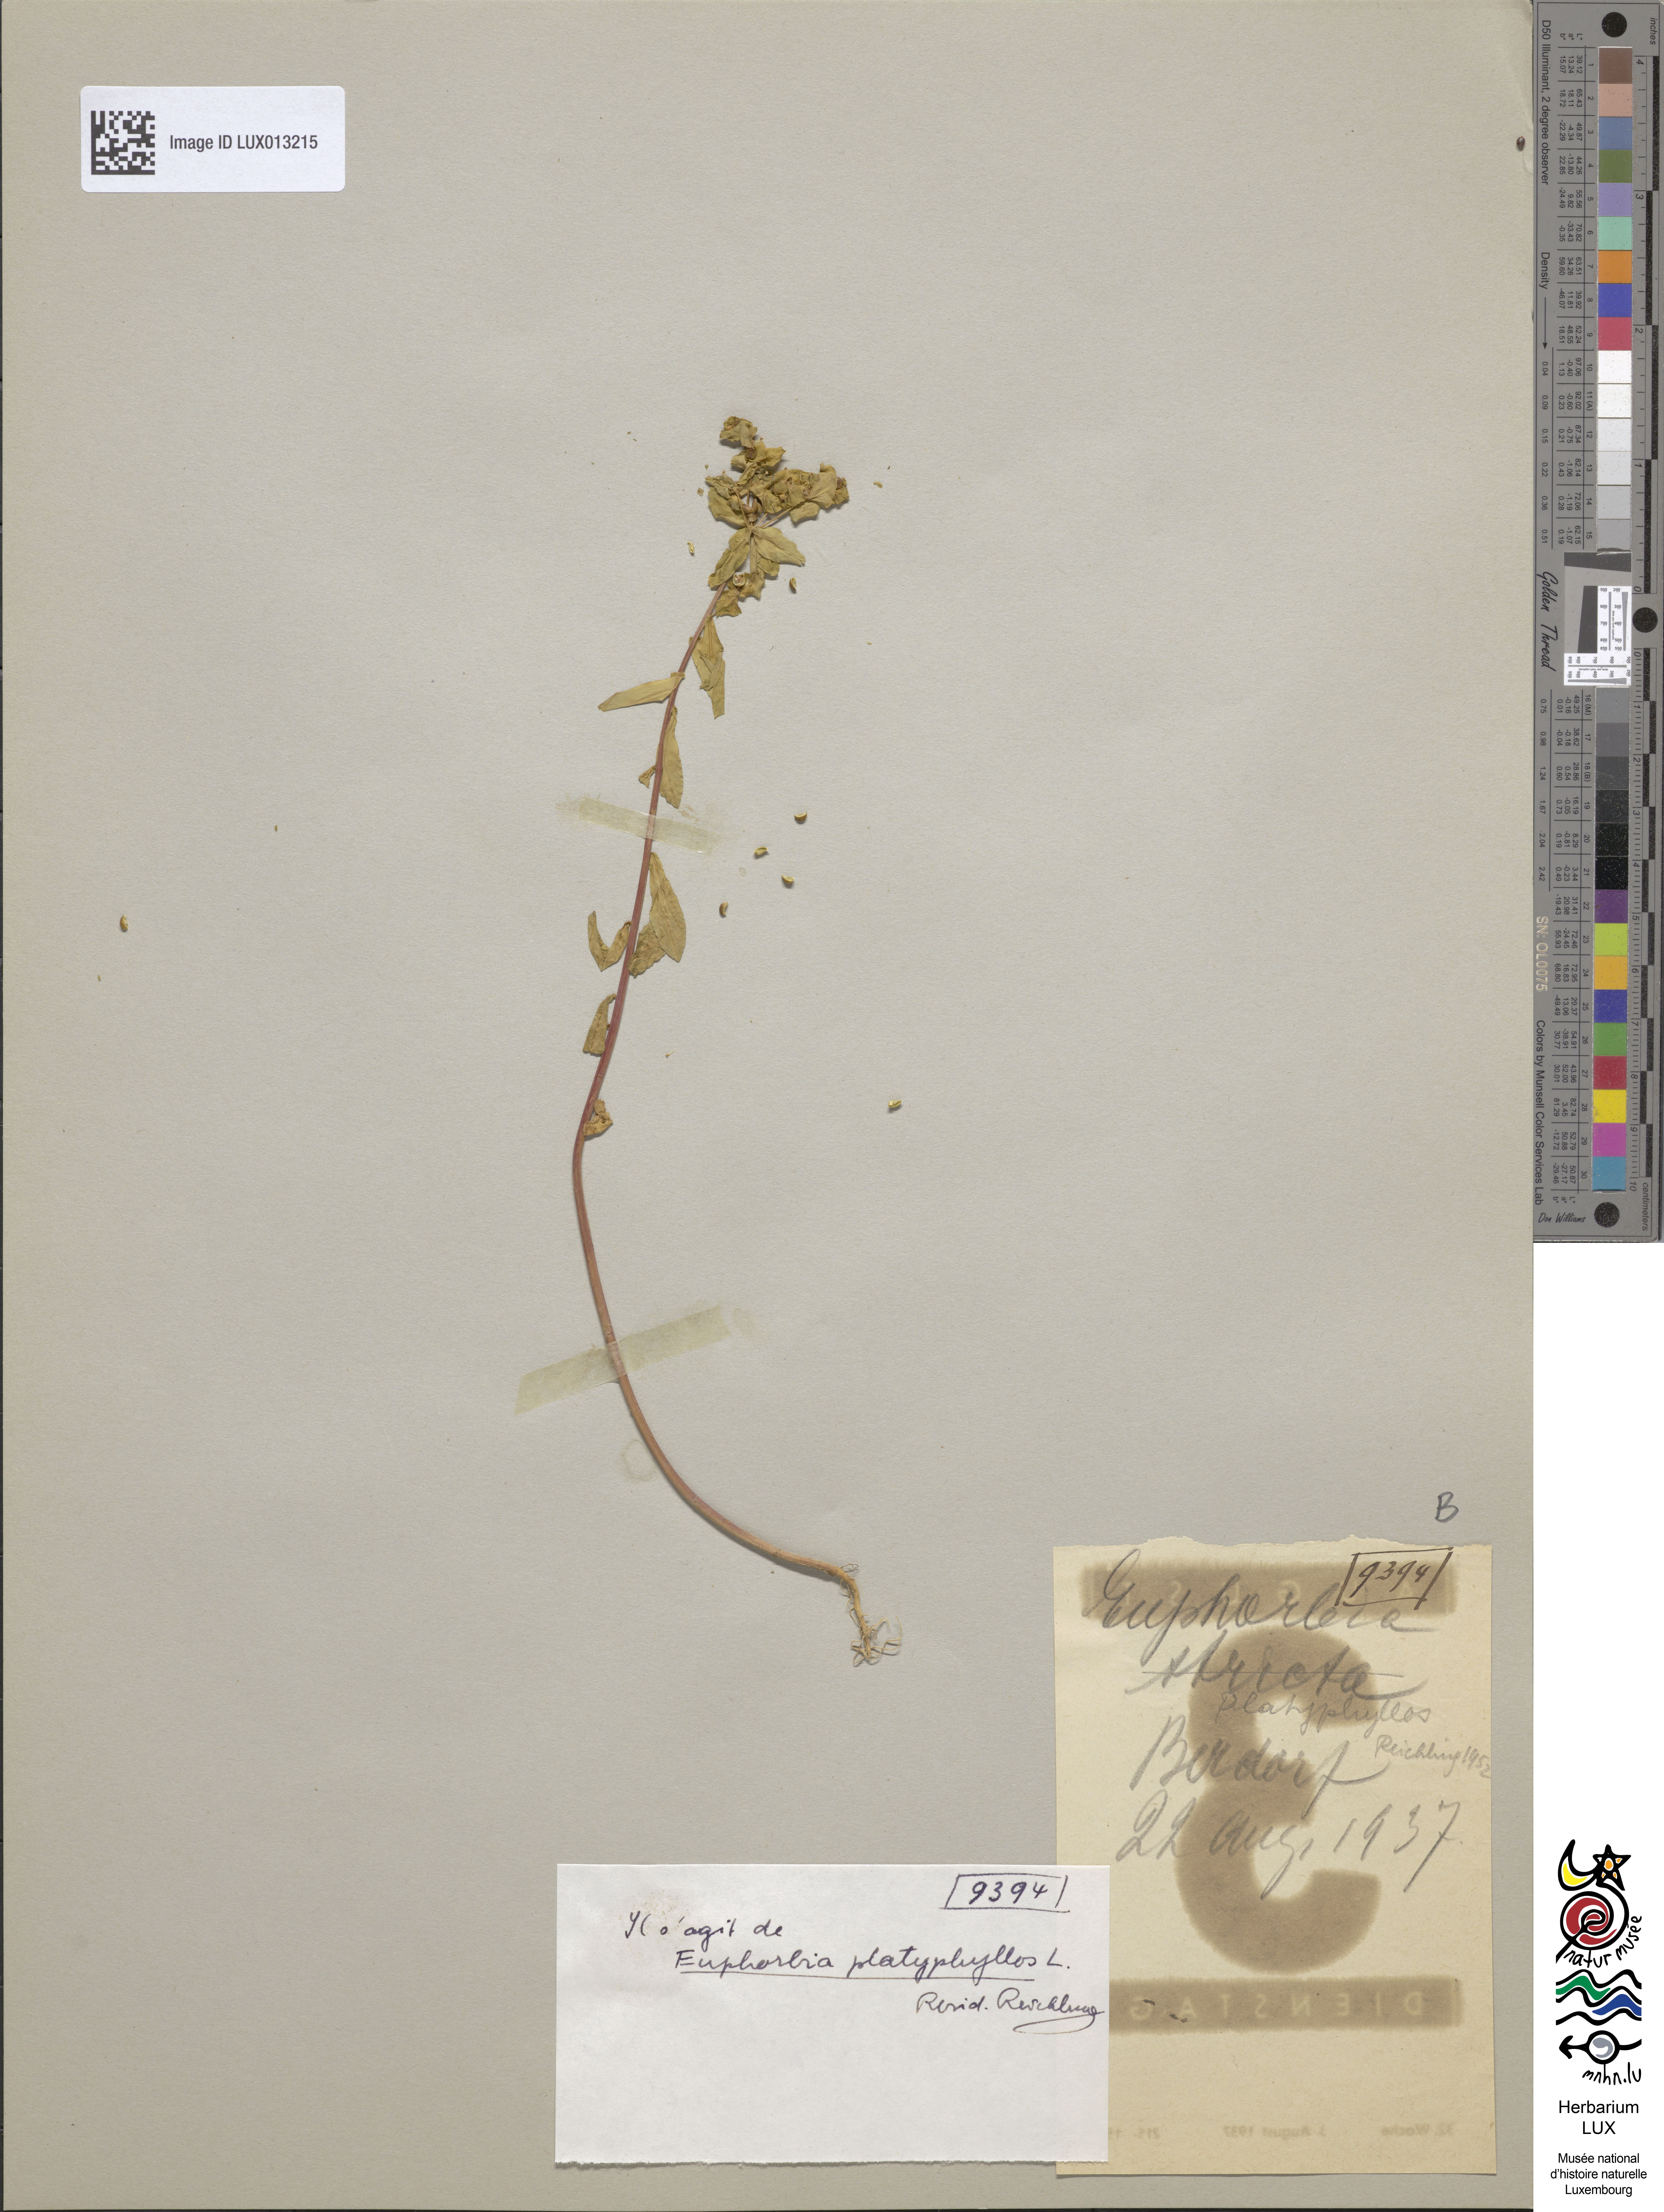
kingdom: Plantae
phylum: Tracheophyta
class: Magnoliopsida
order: Malpighiales
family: Euphorbiaceae
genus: Euphorbia
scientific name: Euphorbia platyphyllos
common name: Broad-leaved spurge
